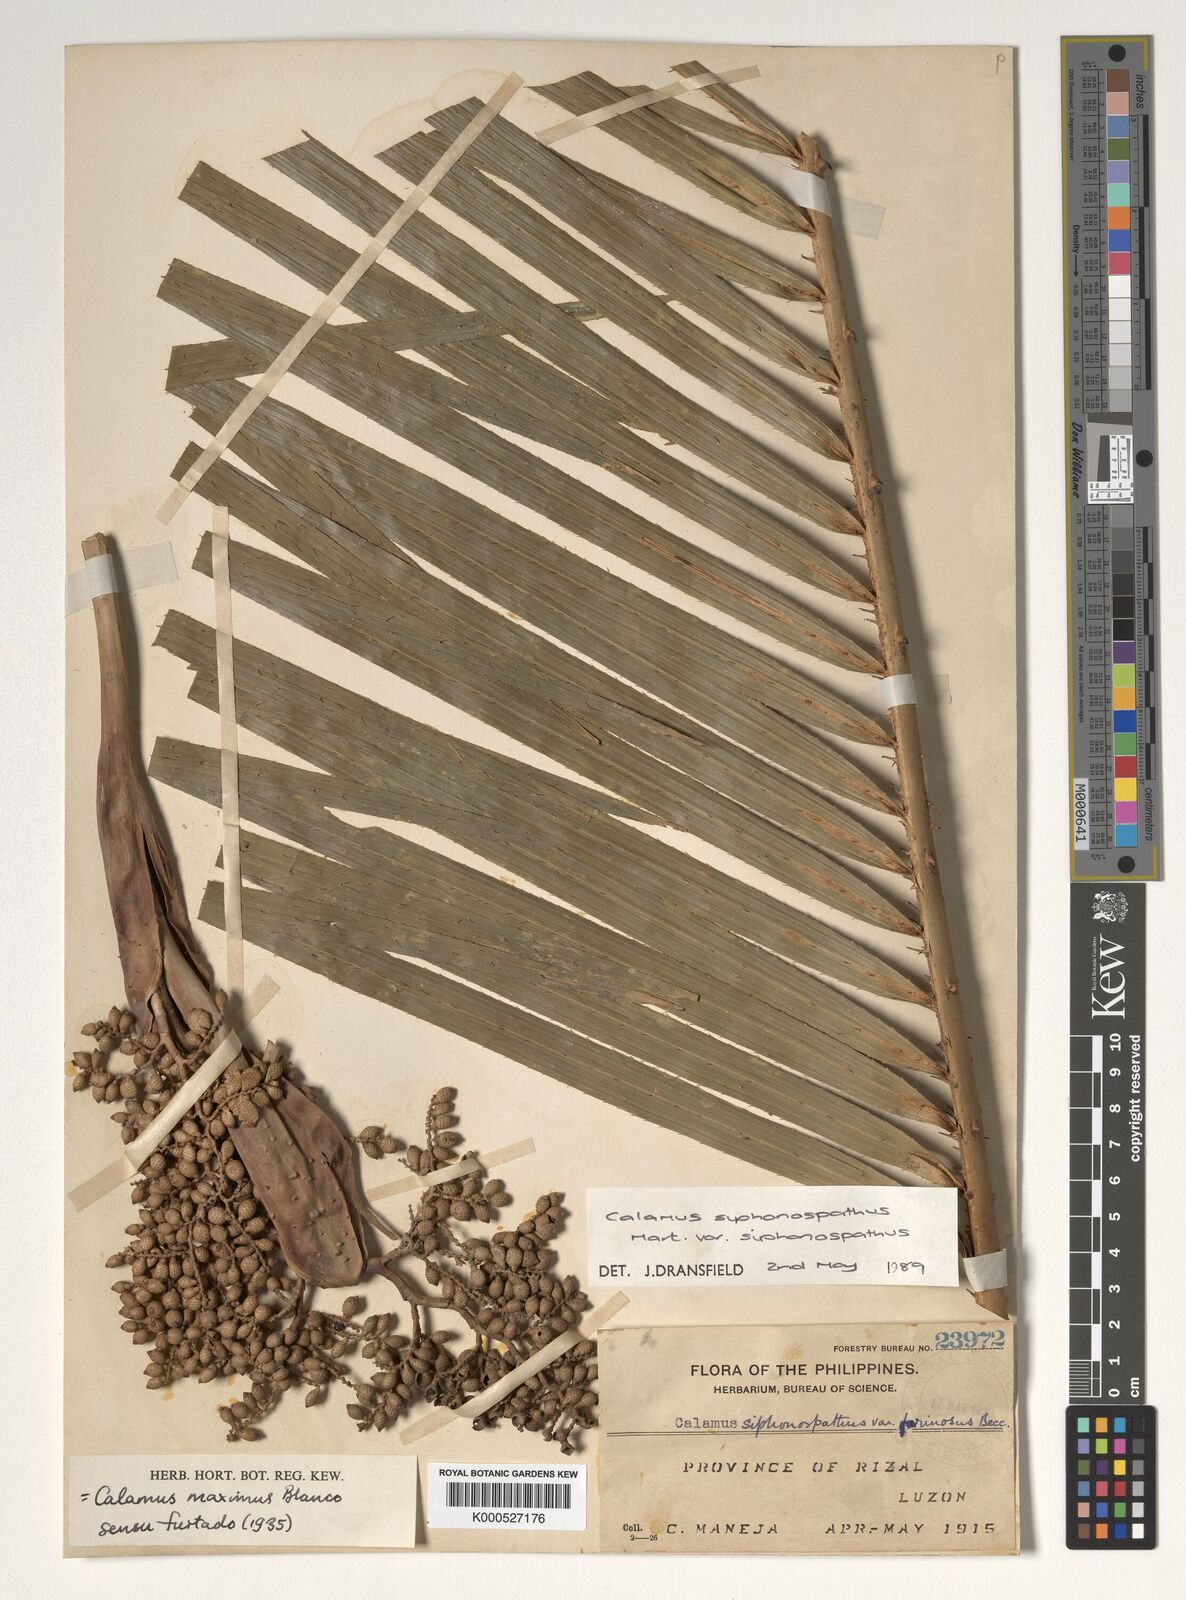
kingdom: Plantae
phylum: Tracheophyta
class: Liliopsida
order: Arecales
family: Arecaceae
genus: Calamus
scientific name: Calamus siphonospathus
